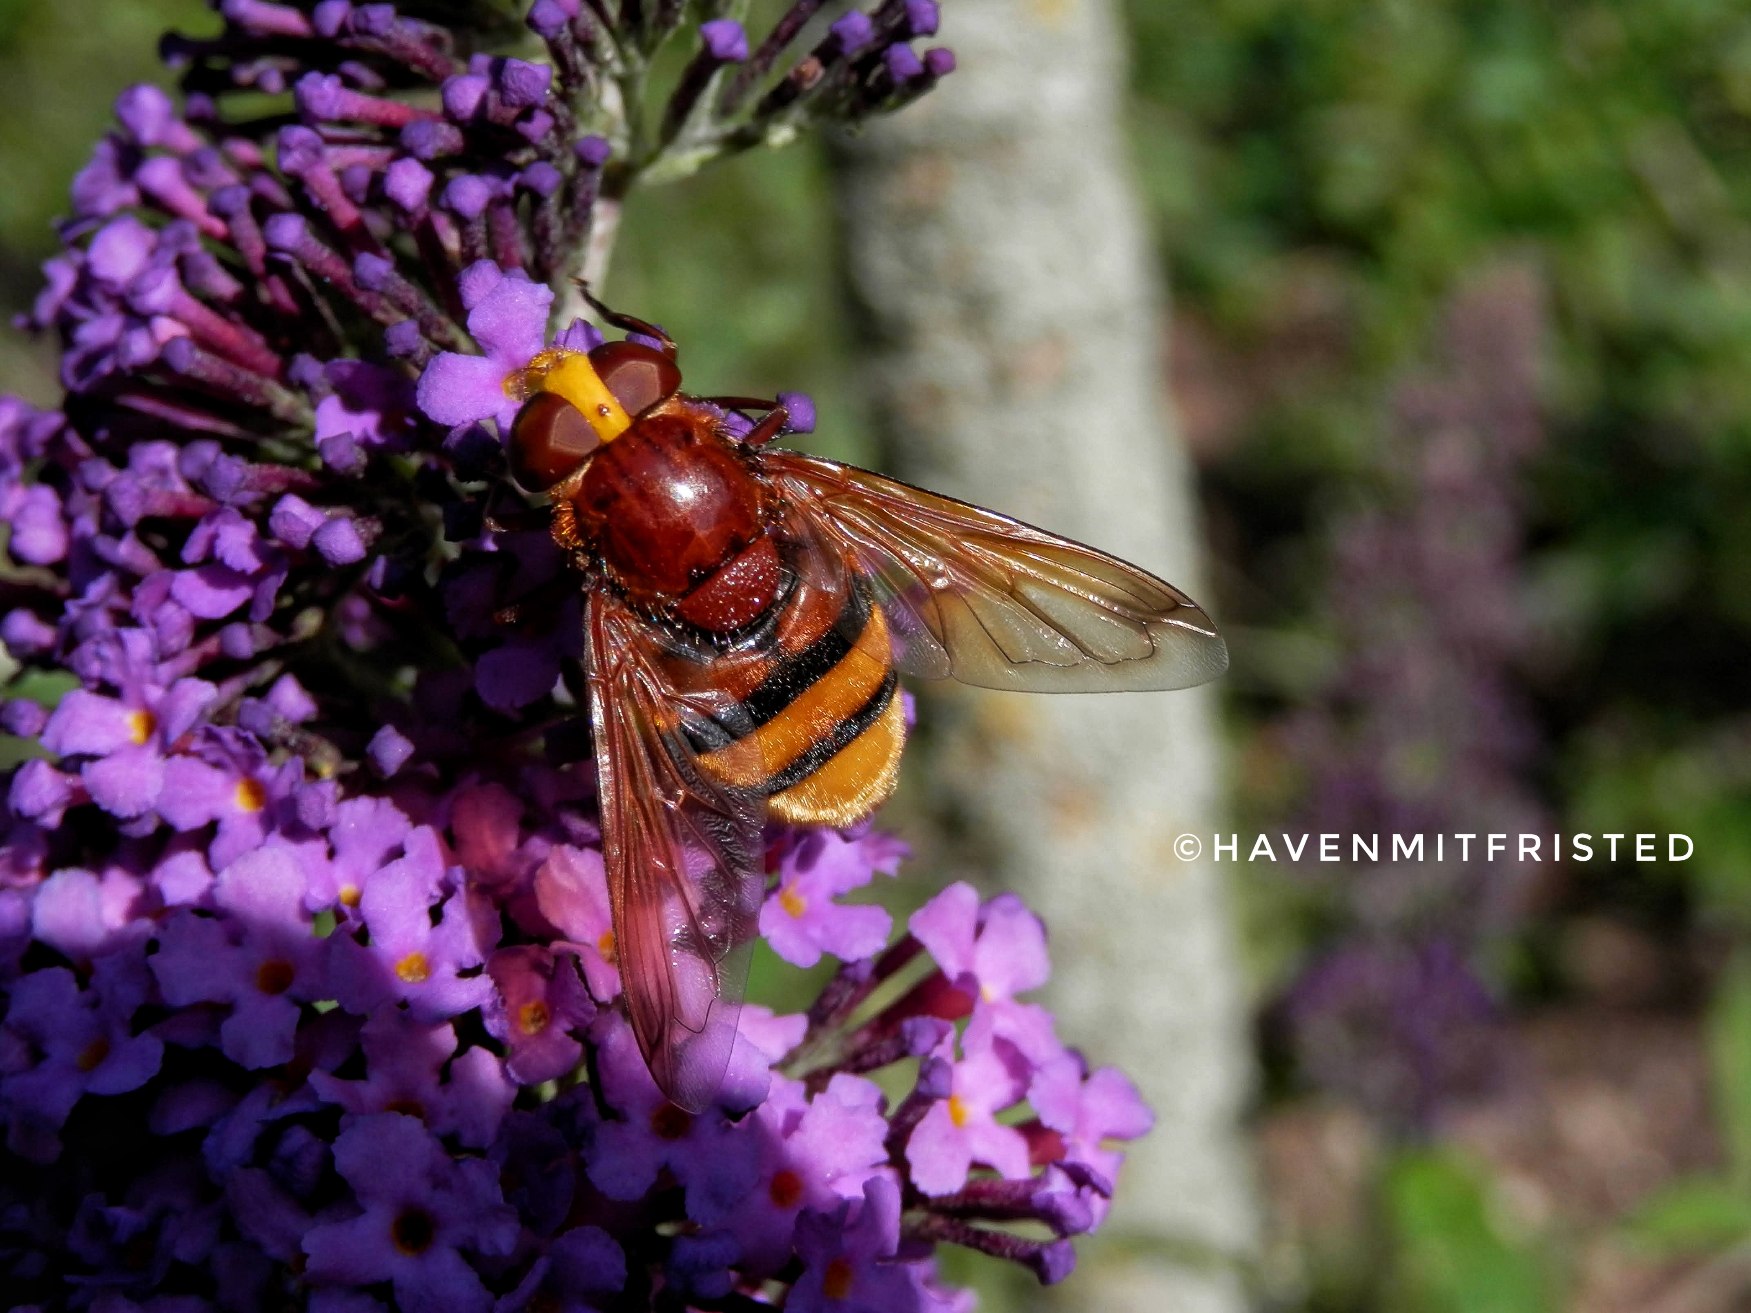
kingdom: Animalia
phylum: Arthropoda
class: Insecta
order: Diptera
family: Syrphidae
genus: Volucella
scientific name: Volucella zonaria
